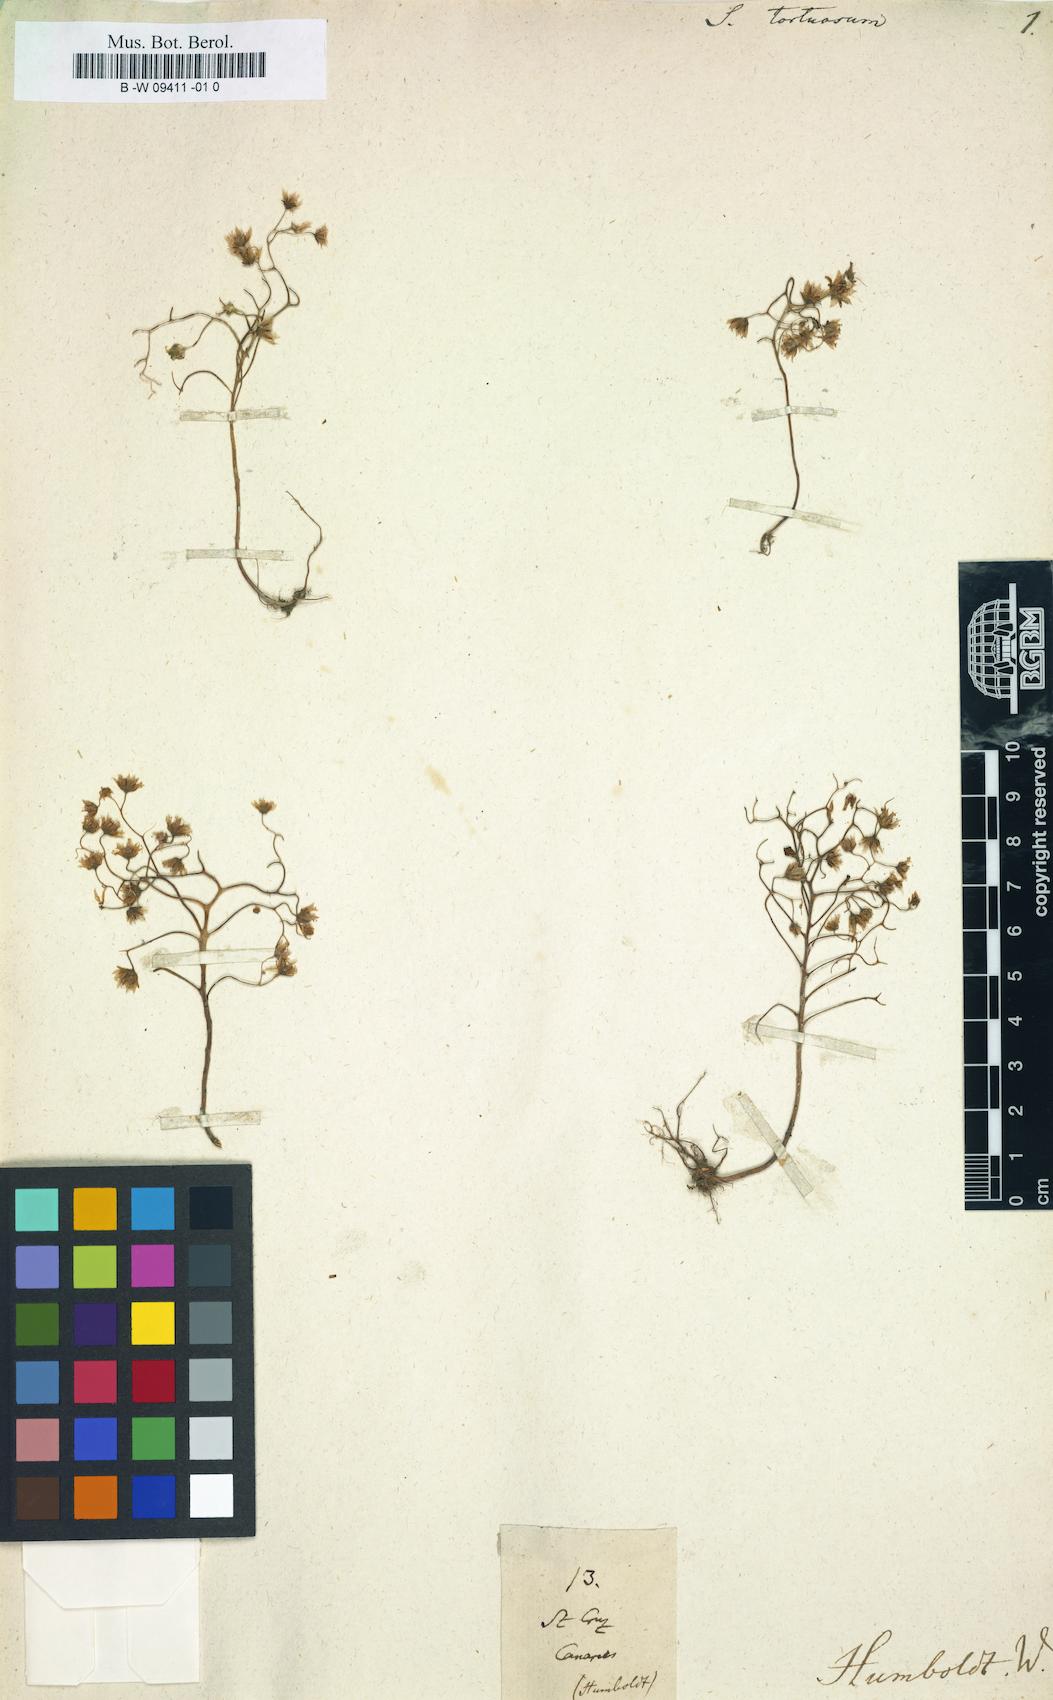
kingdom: Plantae
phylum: Tracheophyta
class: Magnoliopsida
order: Saxifragales
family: Crassulaceae
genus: Aichryson
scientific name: Aichryson tortuosum
